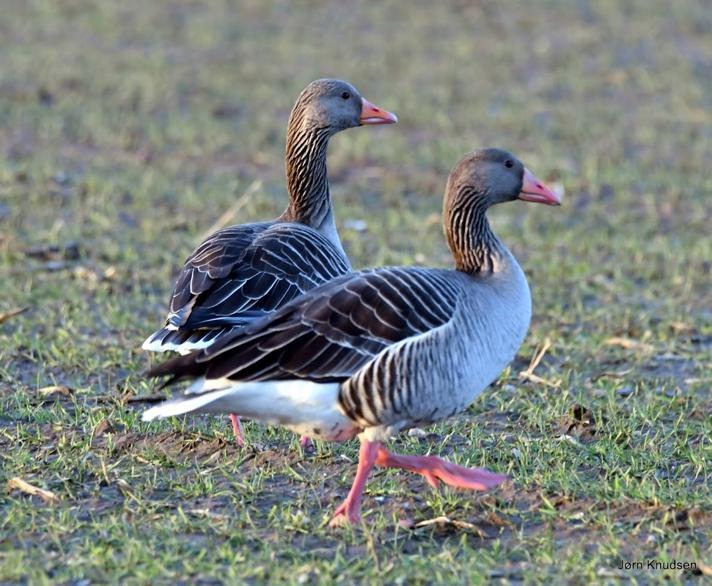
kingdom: Animalia
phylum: Chordata
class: Aves
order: Anseriformes
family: Anatidae
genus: Anser
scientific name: Anser anser
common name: Grågås
